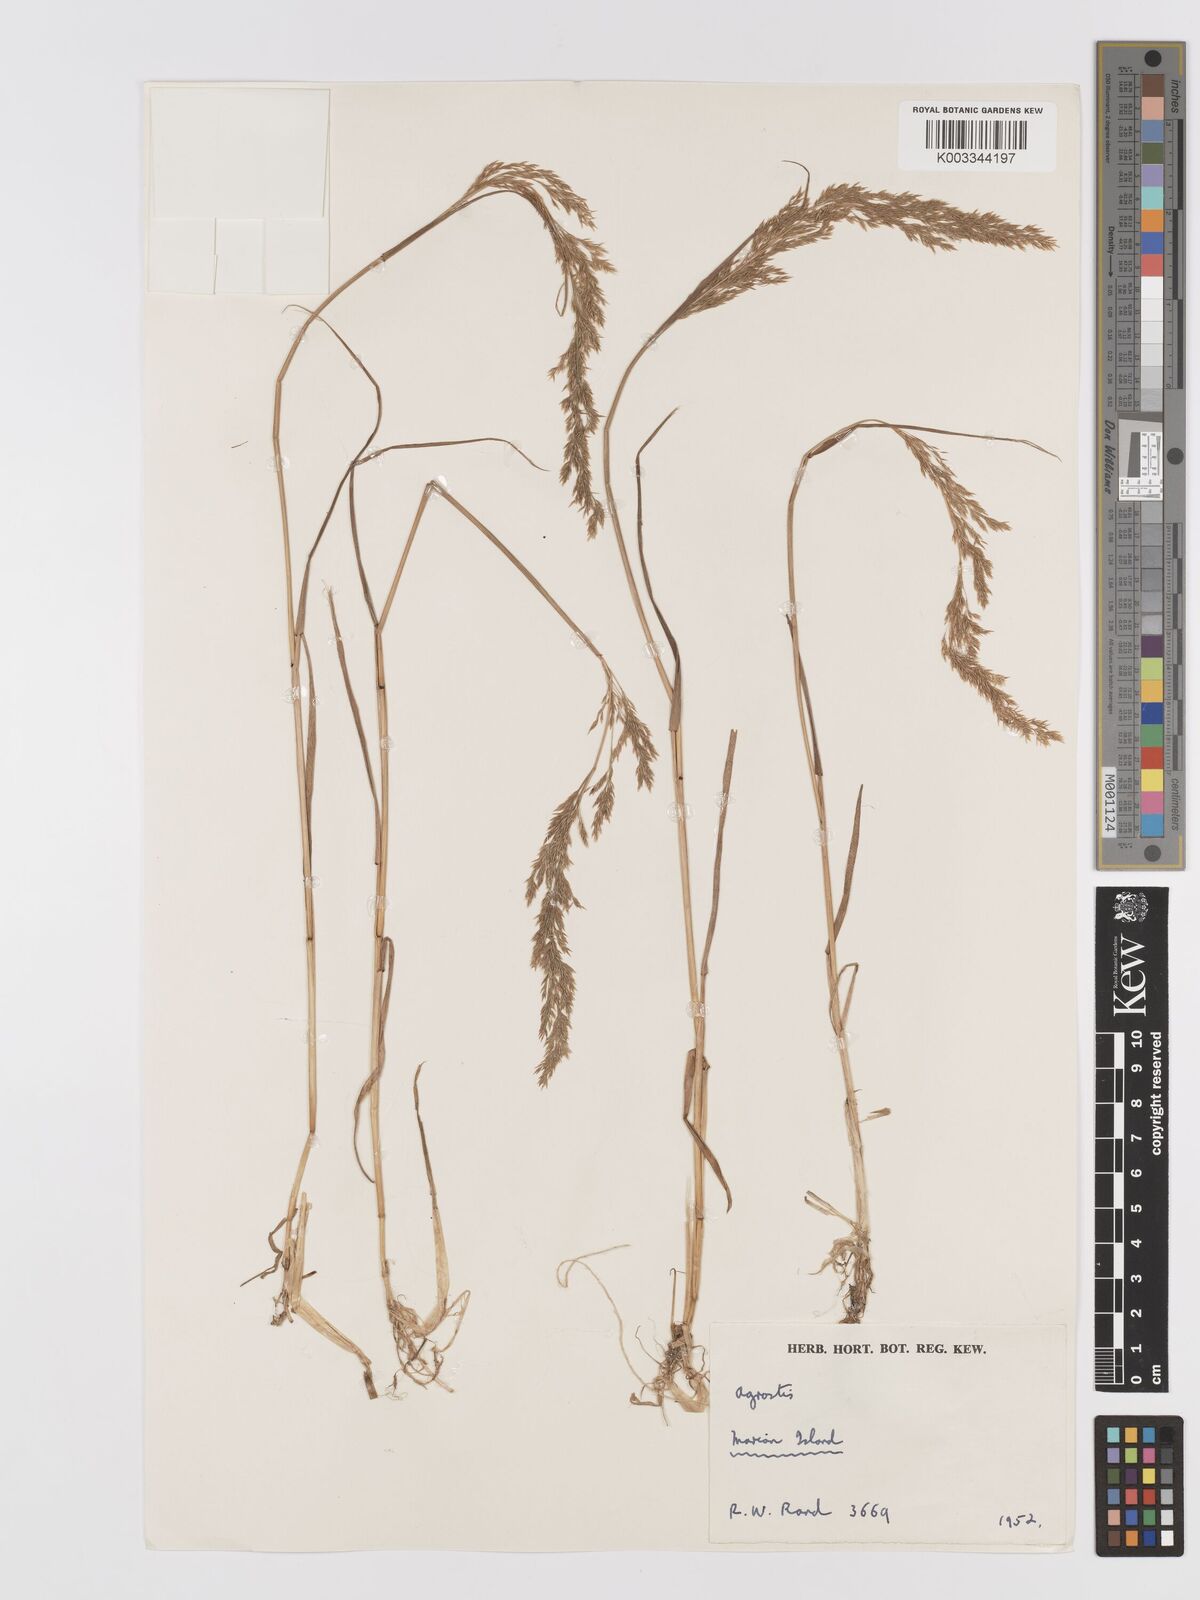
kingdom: Plantae
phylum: Tracheophyta
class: Liliopsida
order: Poales
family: Poaceae
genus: Agrostis
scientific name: Agrostis
